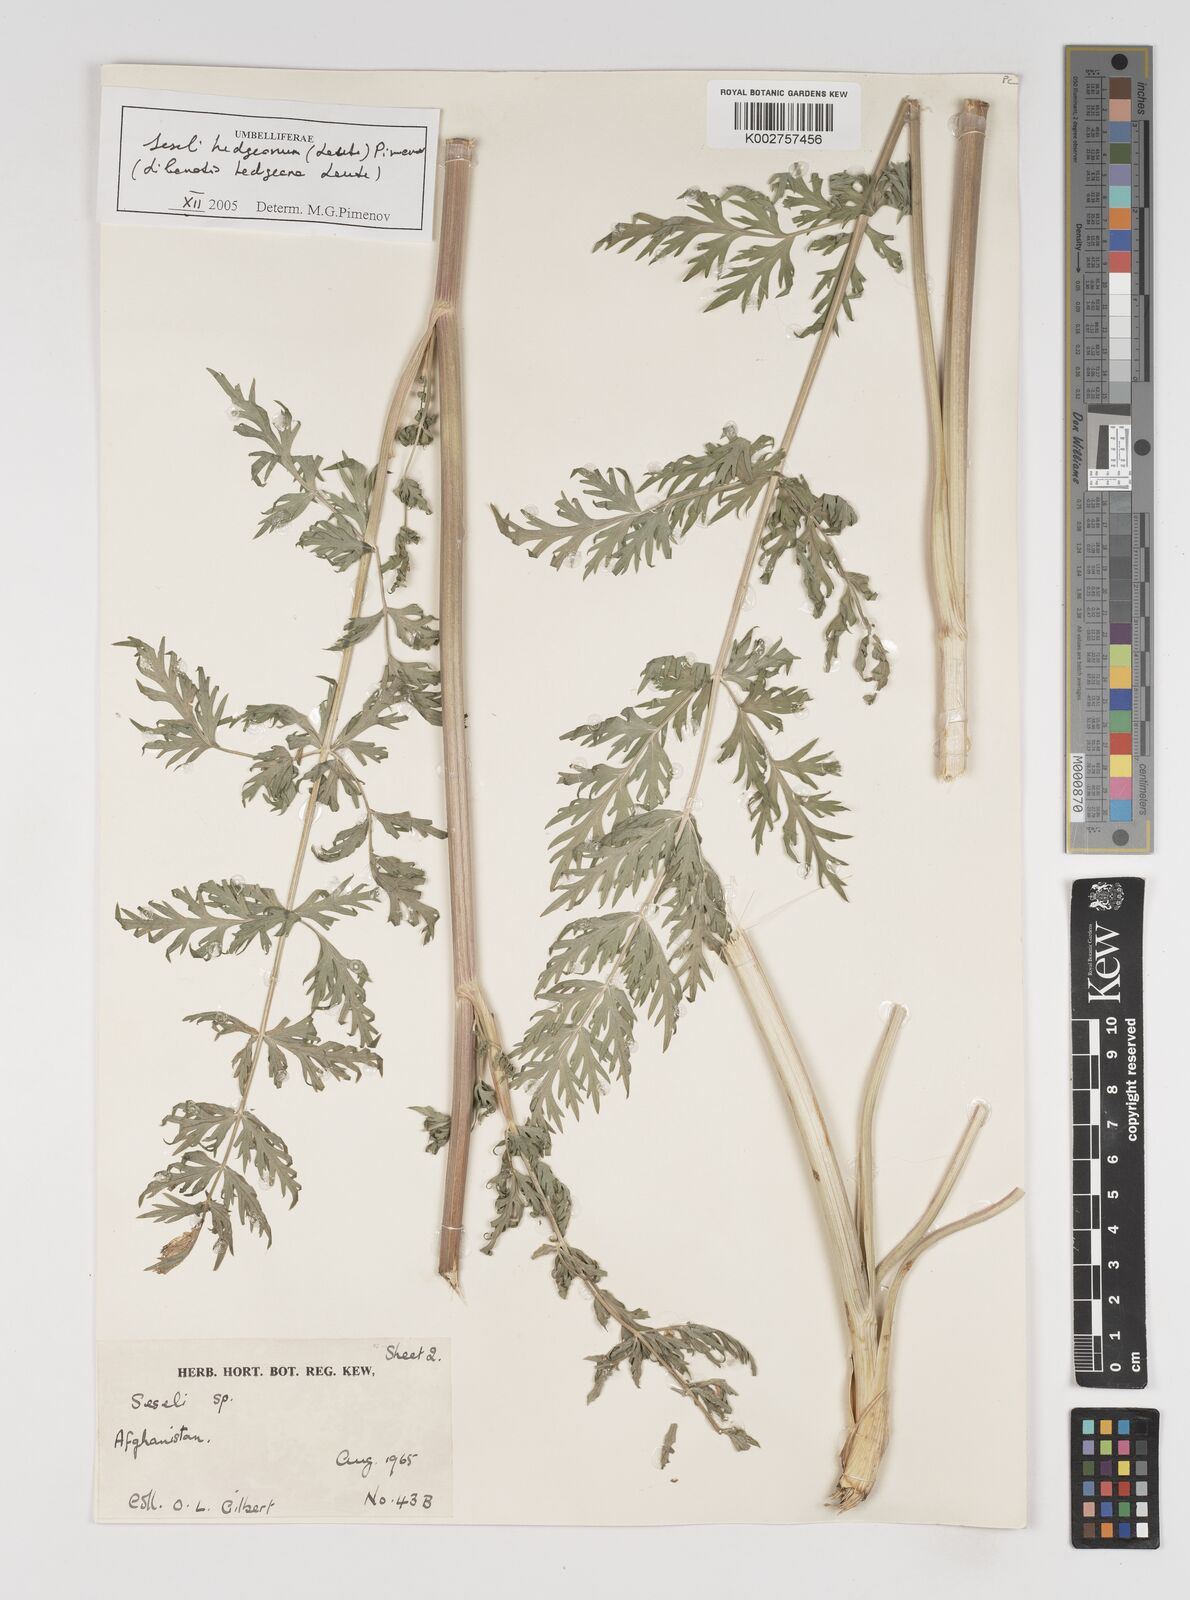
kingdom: Plantae
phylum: Tracheophyta
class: Magnoliopsida
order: Apiales
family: Apiaceae
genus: Seseli
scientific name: Seseli
